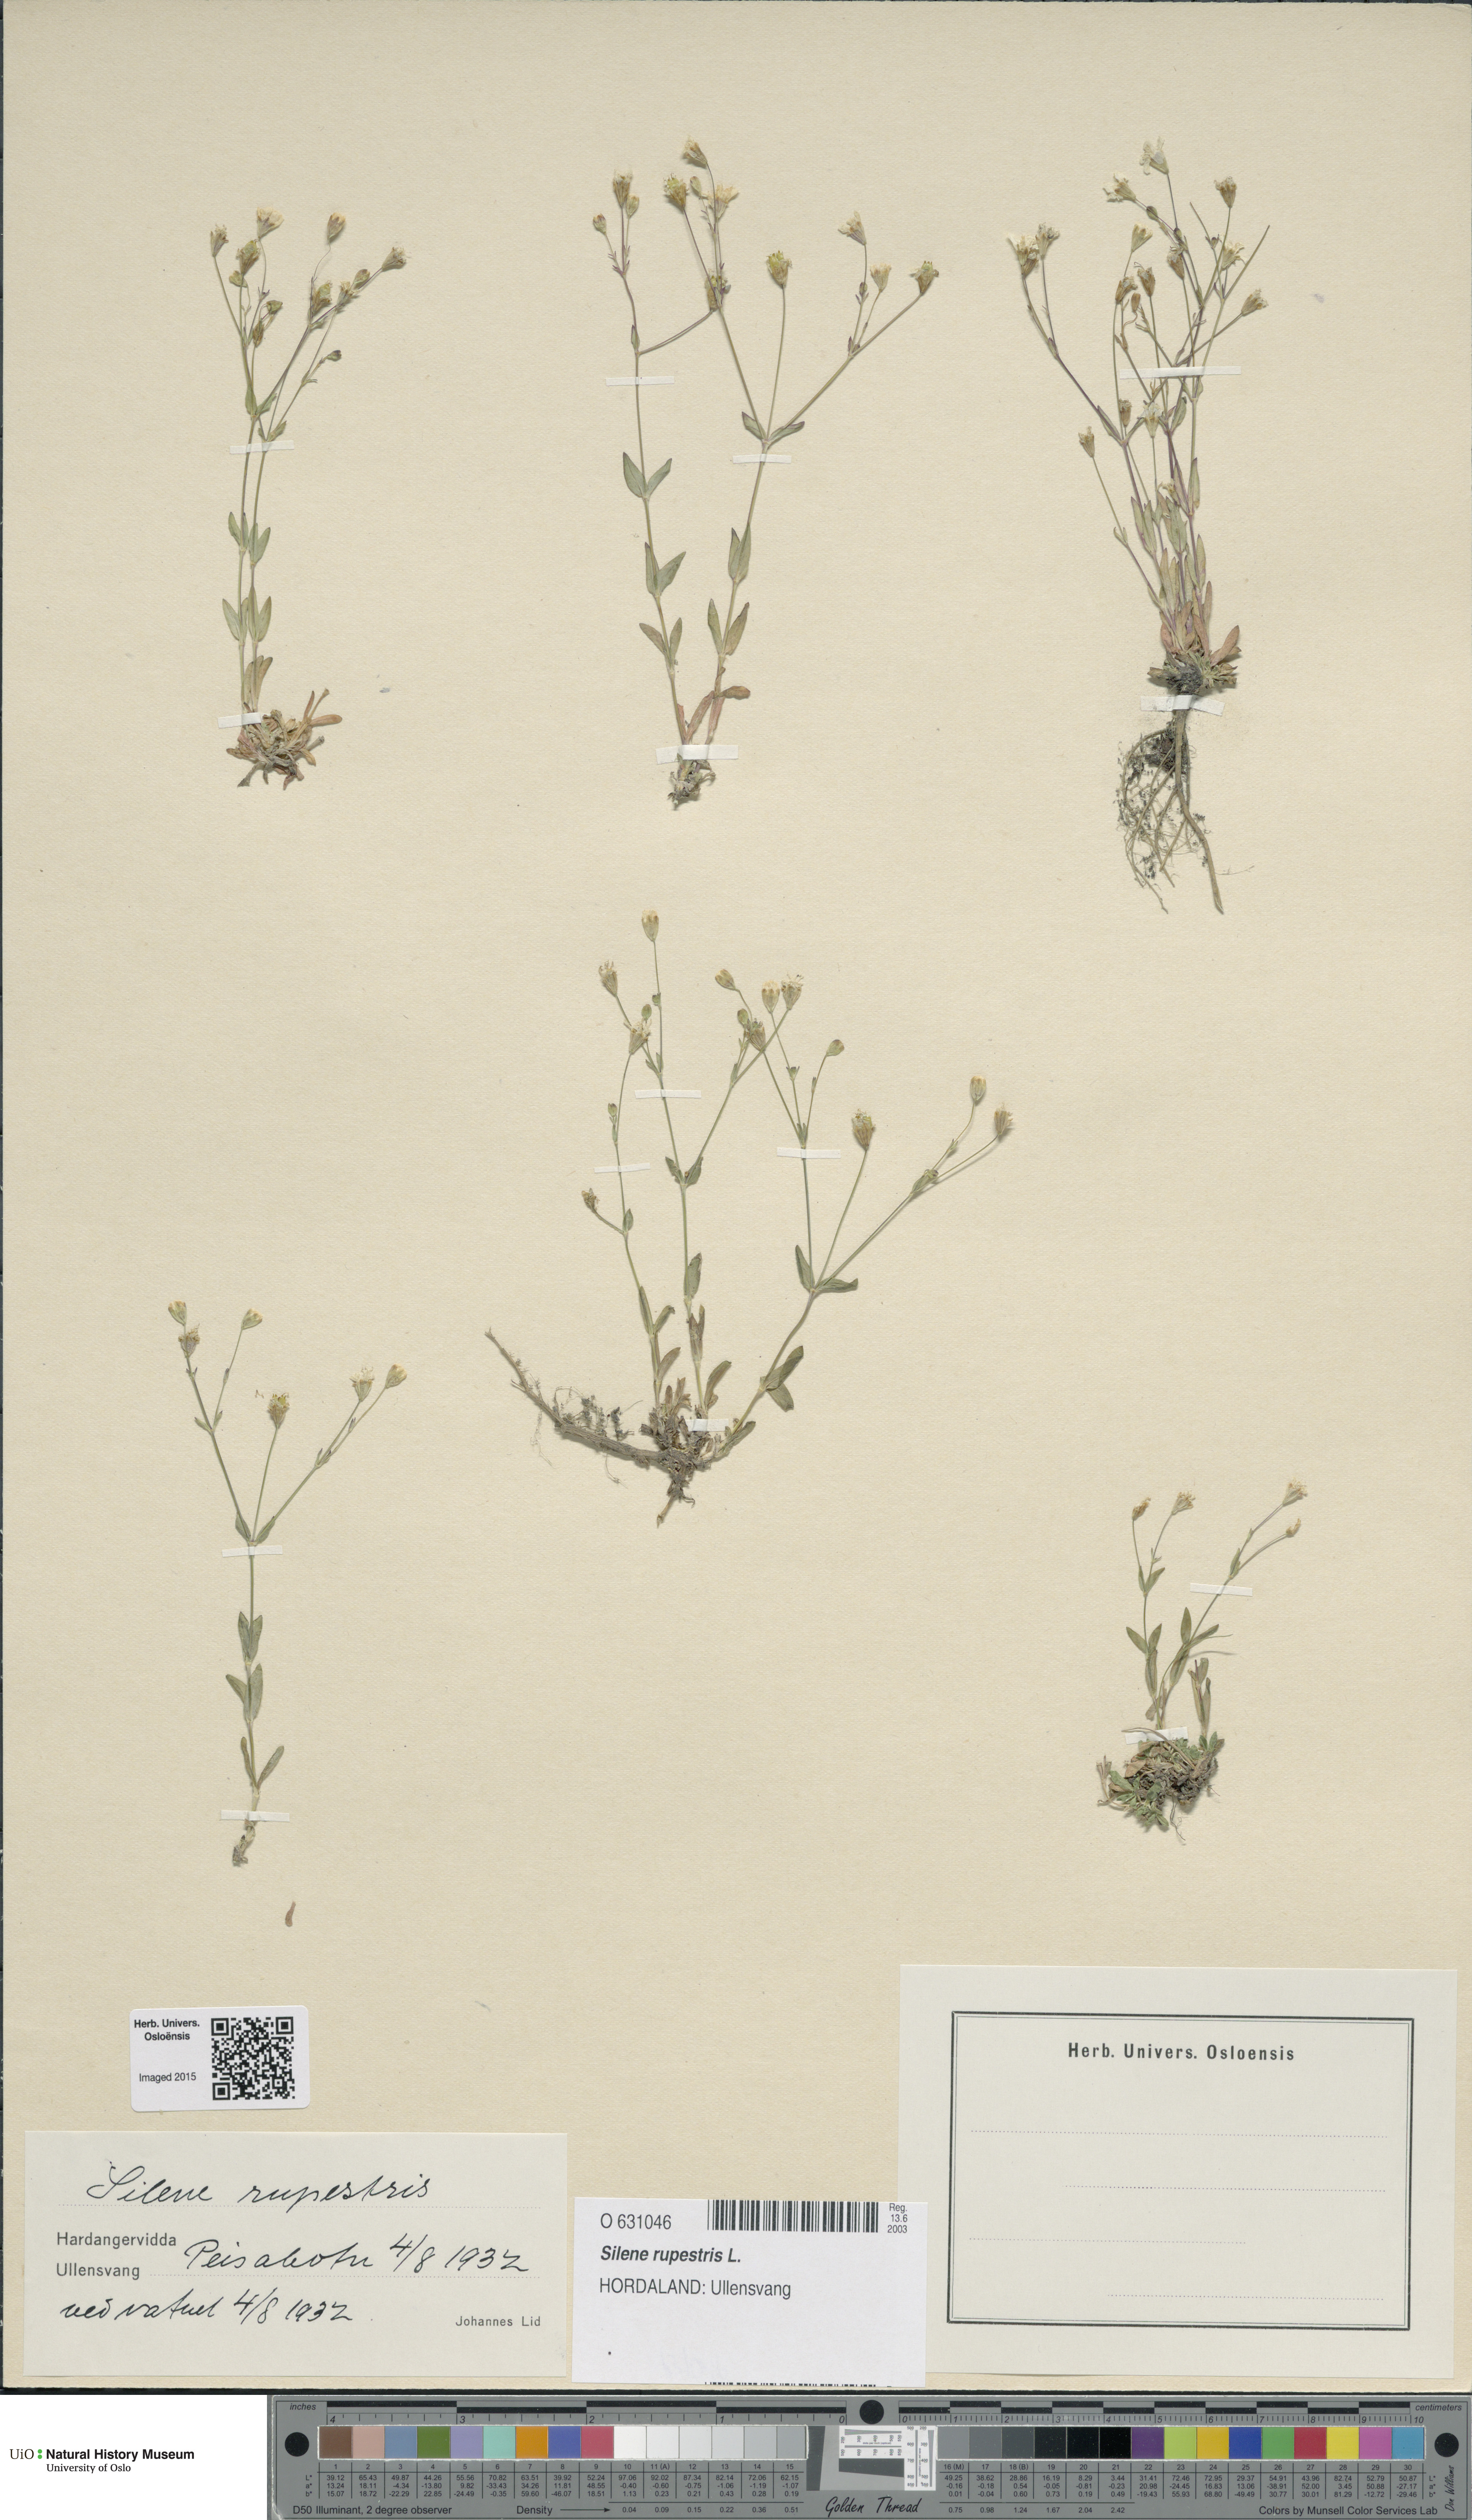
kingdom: Plantae
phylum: Tracheophyta
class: Magnoliopsida
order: Caryophyllales
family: Caryophyllaceae
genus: Atocion
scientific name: Atocion rupestre
